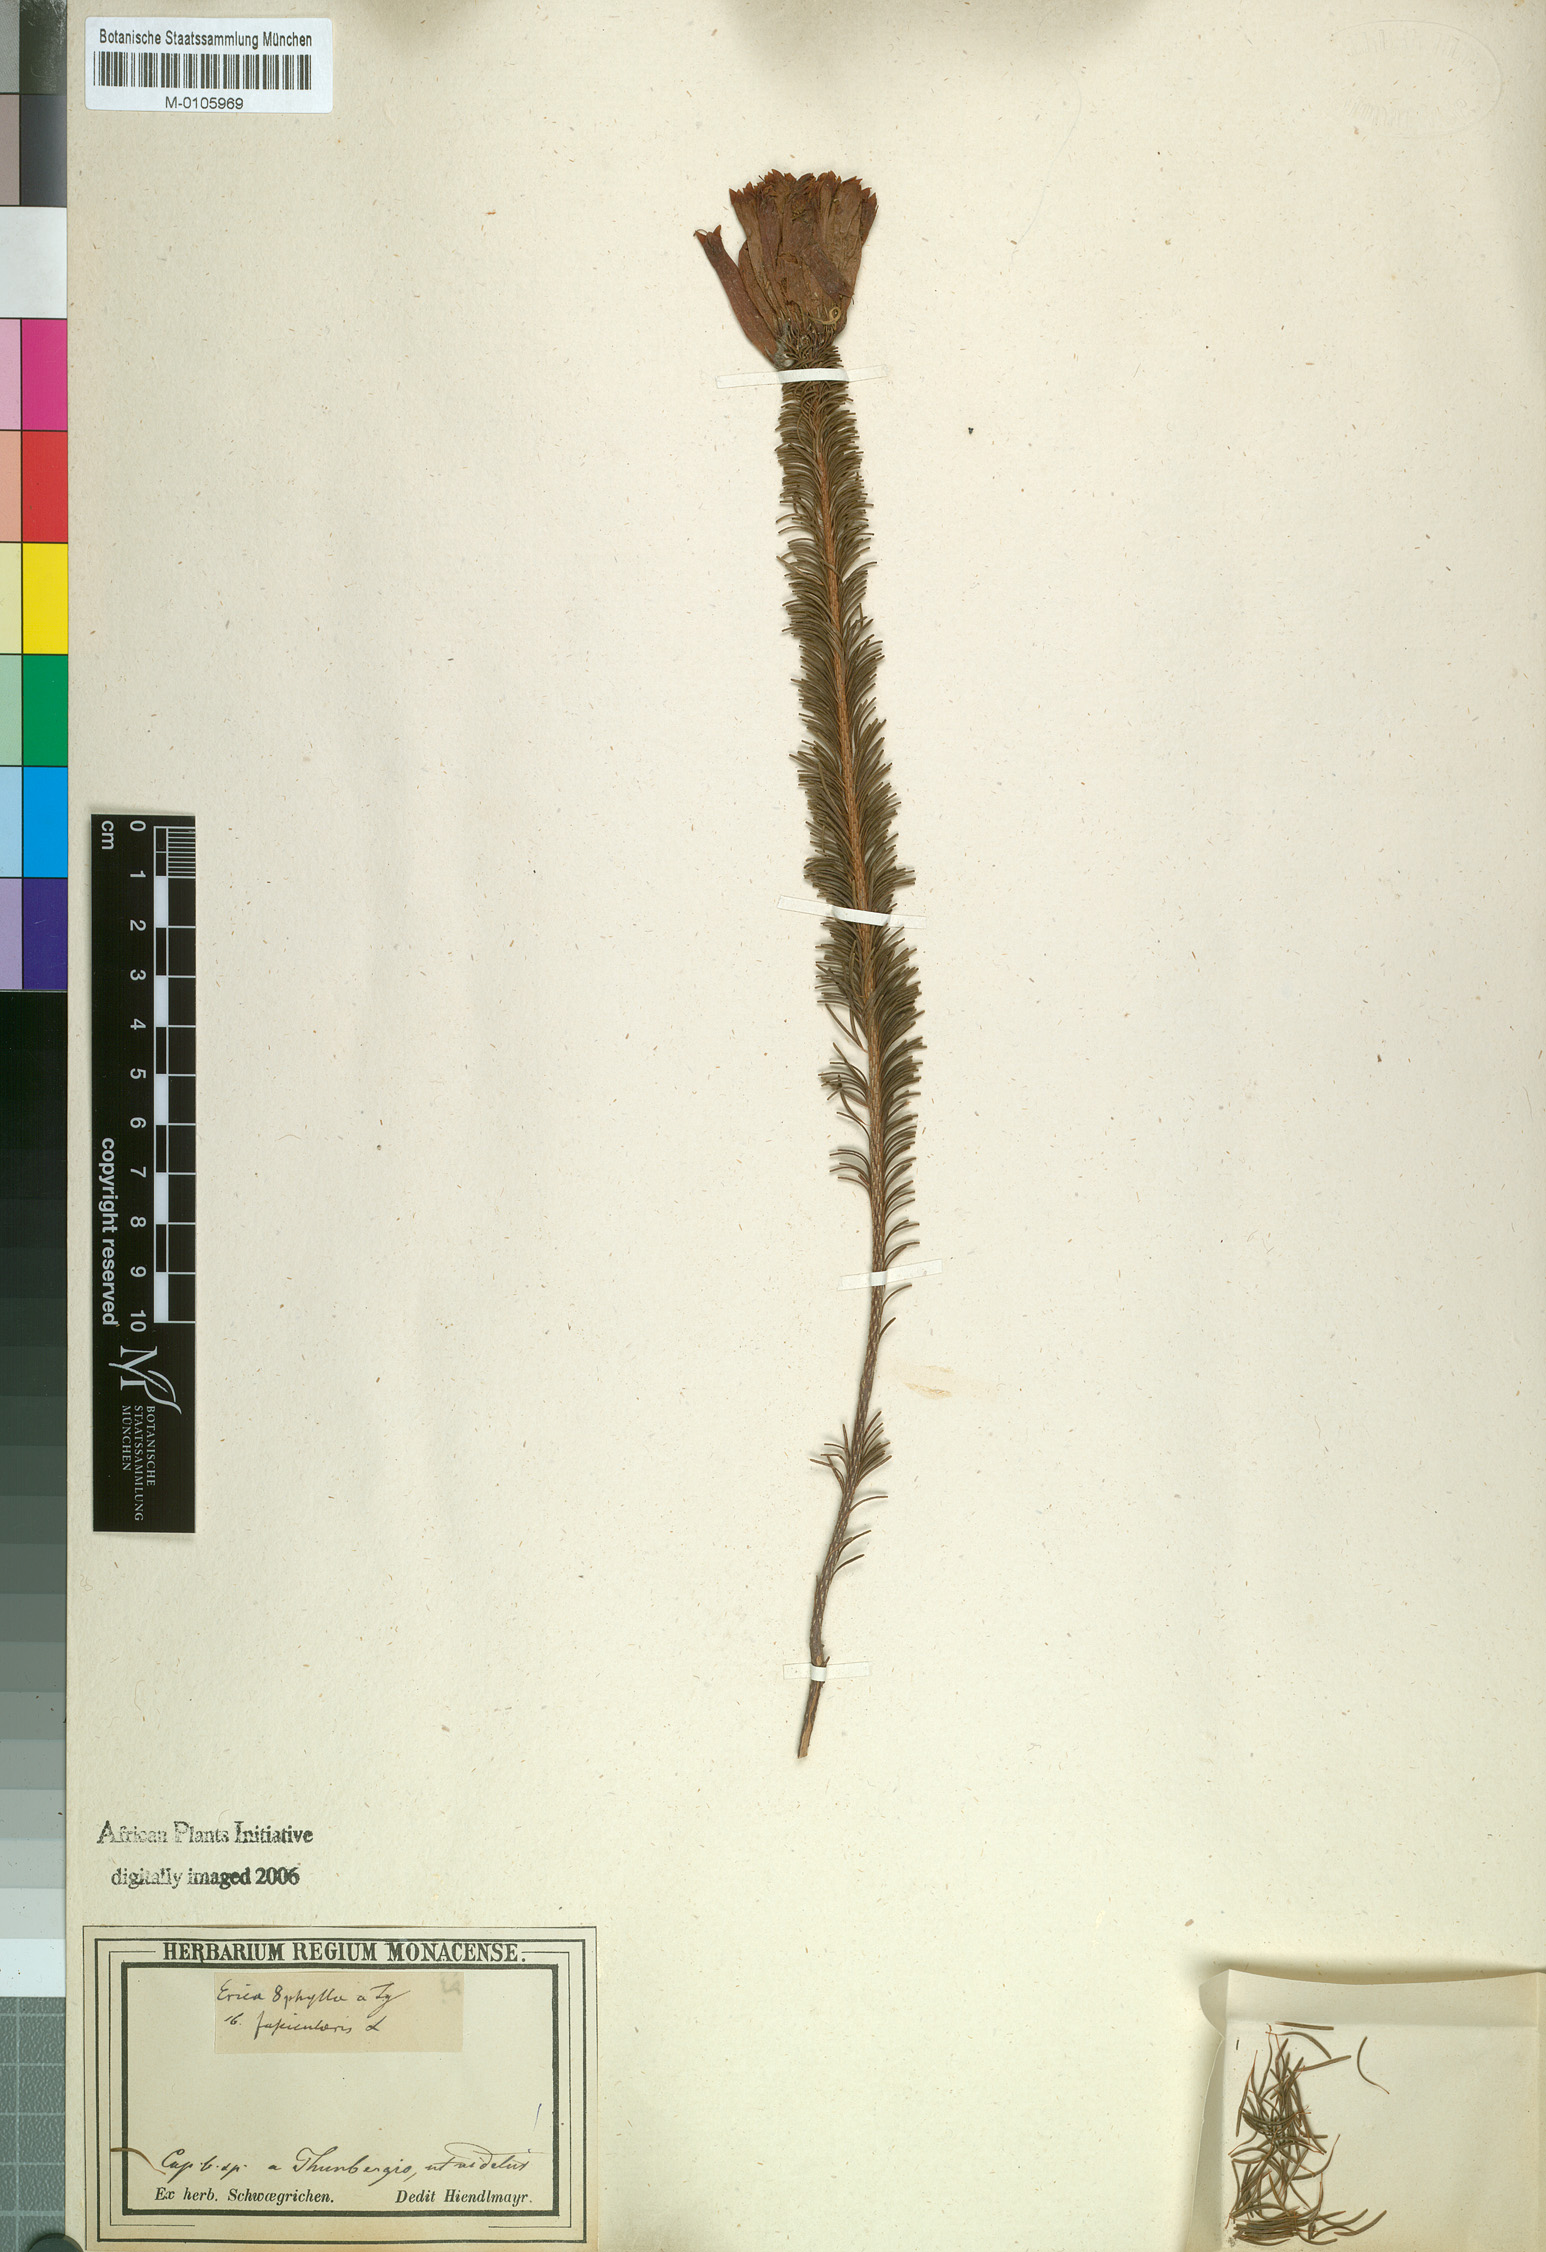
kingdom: Plantae
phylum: Tracheophyta
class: Magnoliopsida
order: Ericales
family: Ericaceae
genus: Erica
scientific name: Erica fascicularis
